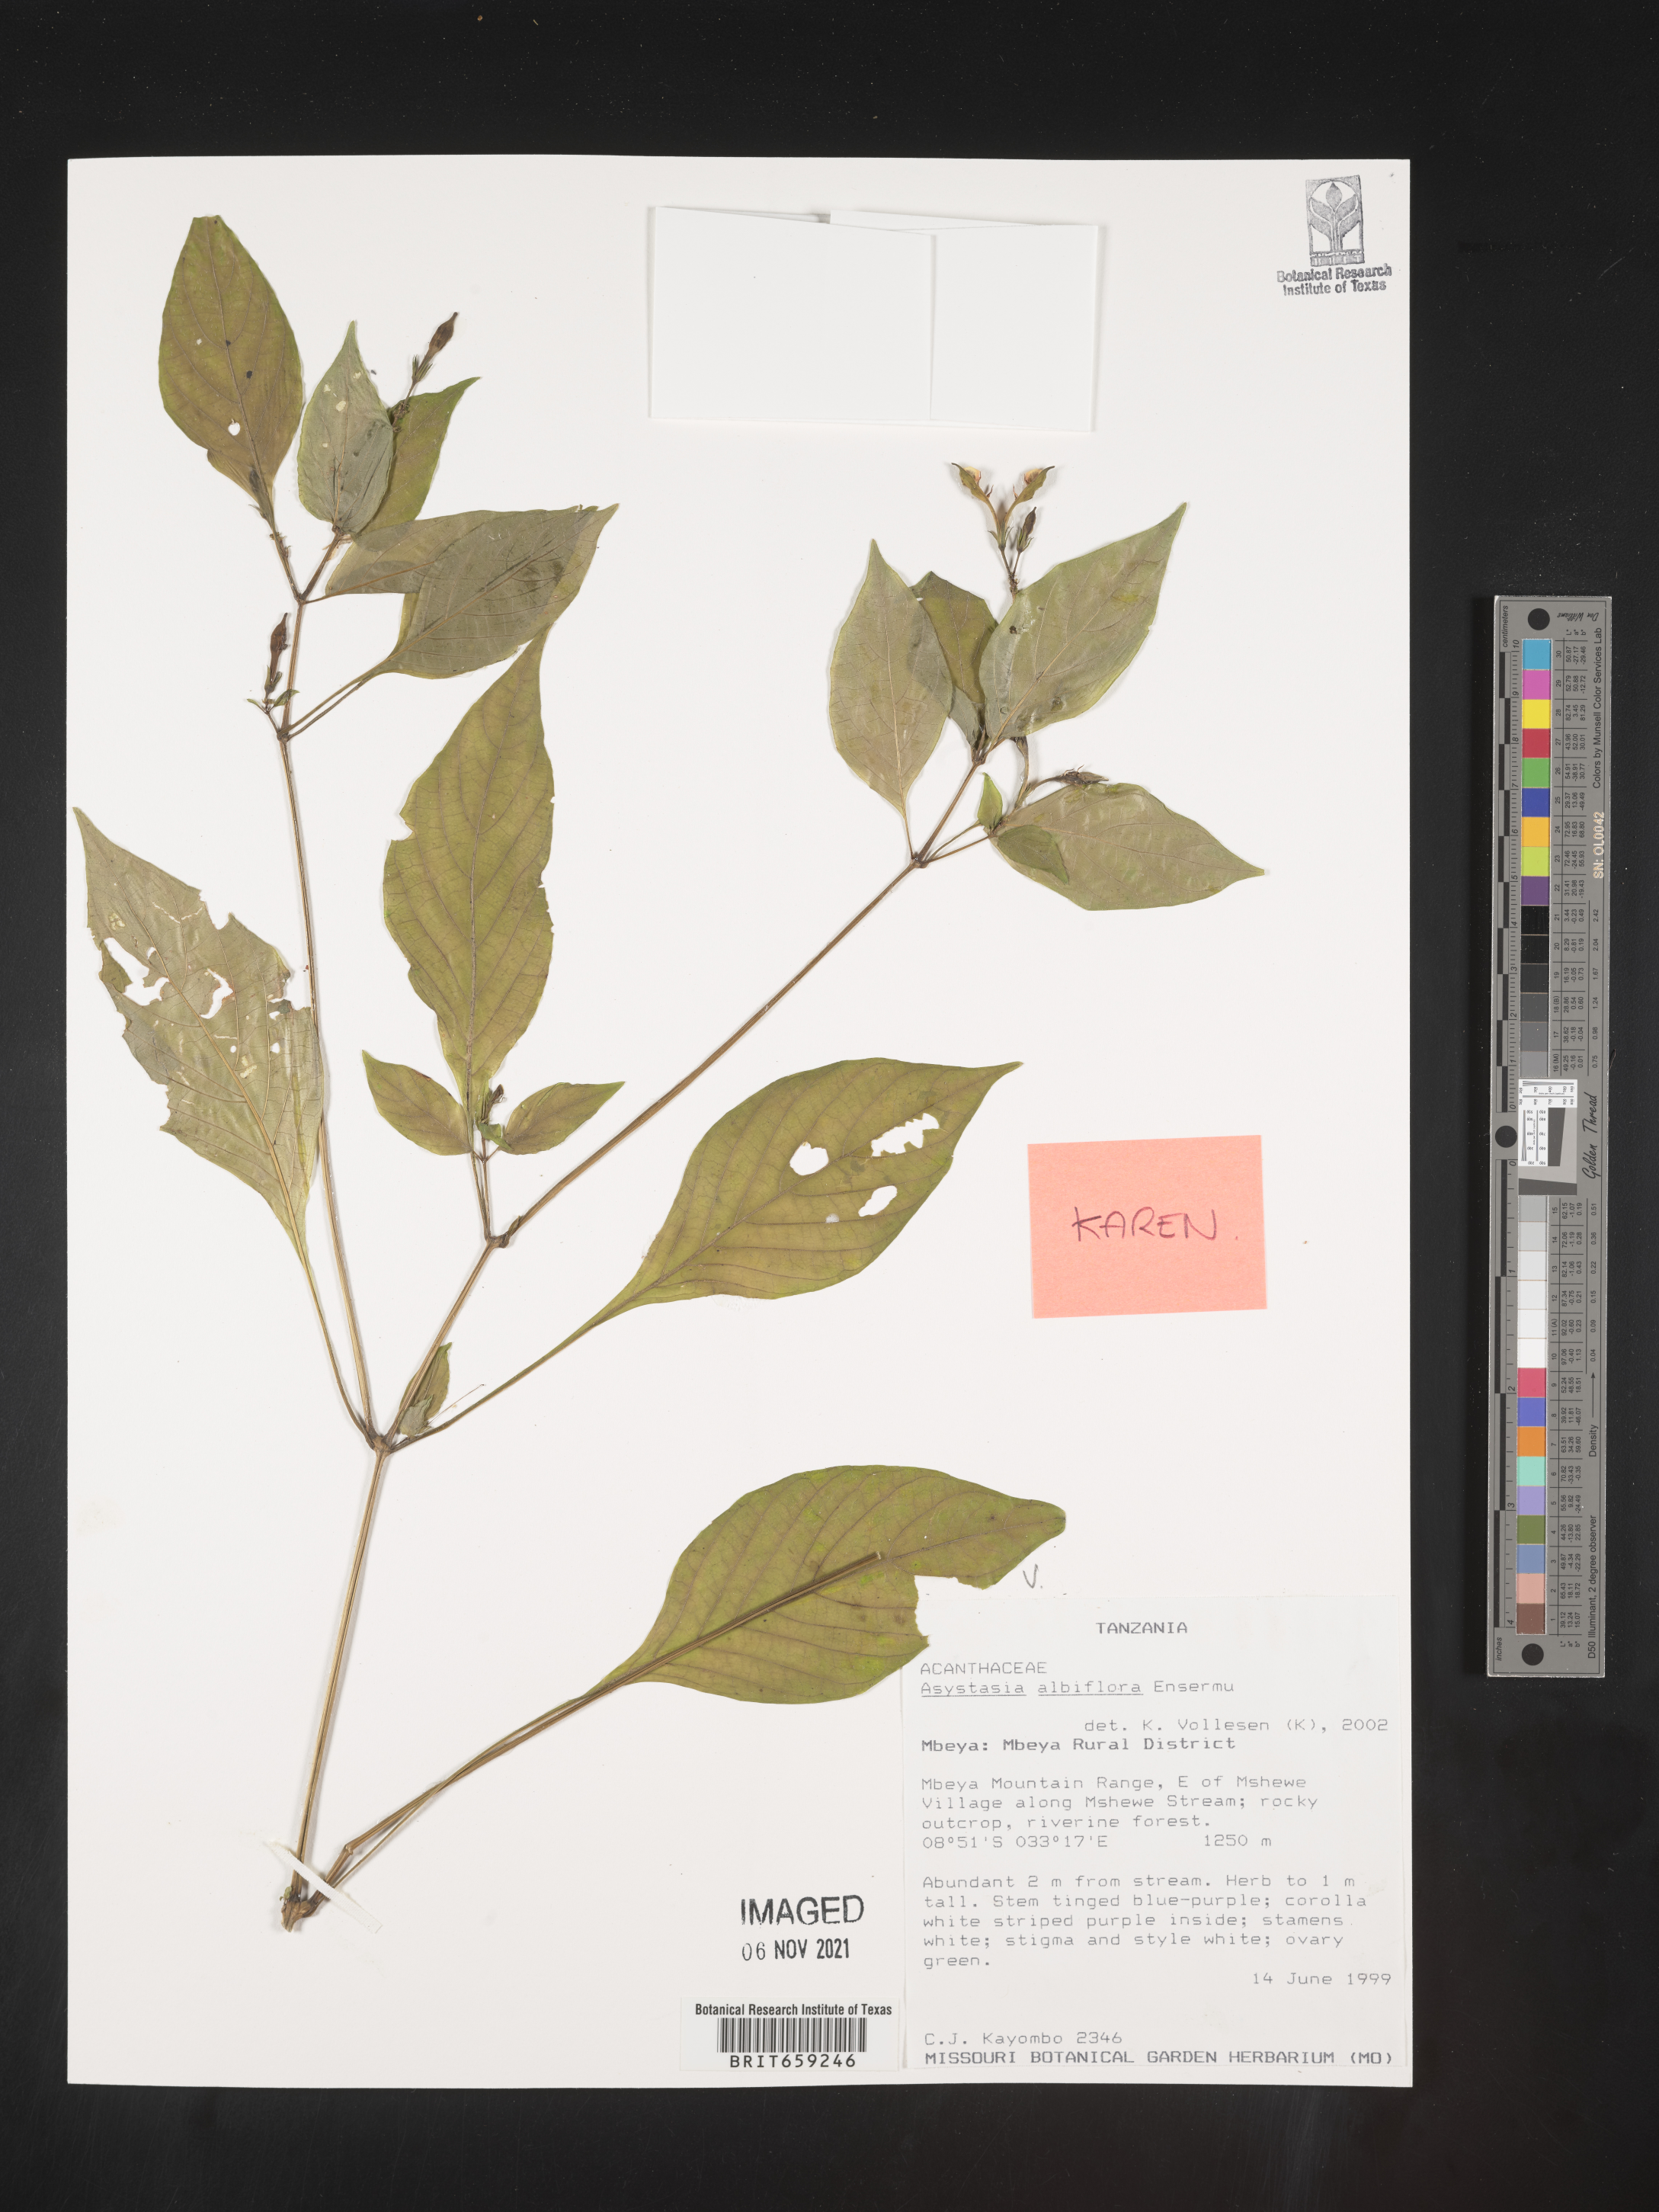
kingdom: Plantae
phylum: Tracheophyta
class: Magnoliopsida
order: Lamiales
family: Acanthaceae
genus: Asystasia
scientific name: Asystasia albiflora
